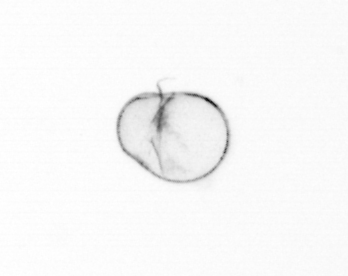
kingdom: Chromista
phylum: Myzozoa
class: Dinophyceae
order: Noctilucales
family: Noctilucaceae
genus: Noctiluca
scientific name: Noctiluca scintillans
